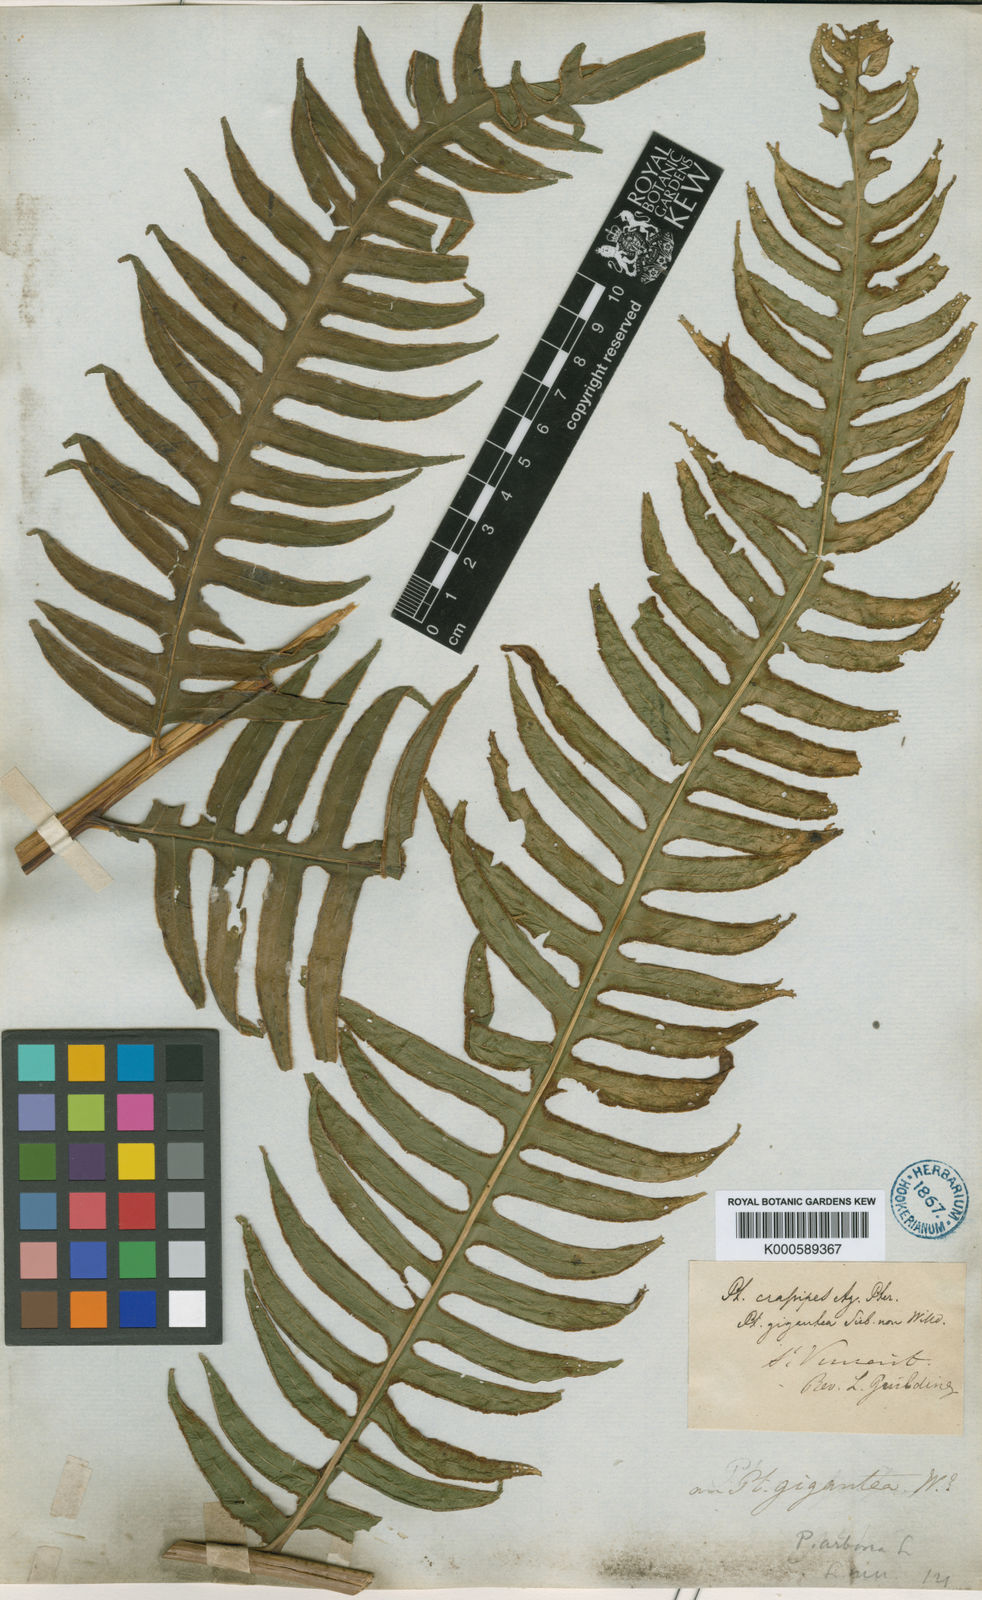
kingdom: Plantae
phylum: Tracheophyta
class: Polypodiopsida
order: Polypodiales
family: Pteridaceae
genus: Pteris
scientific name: Pteris gigantea
